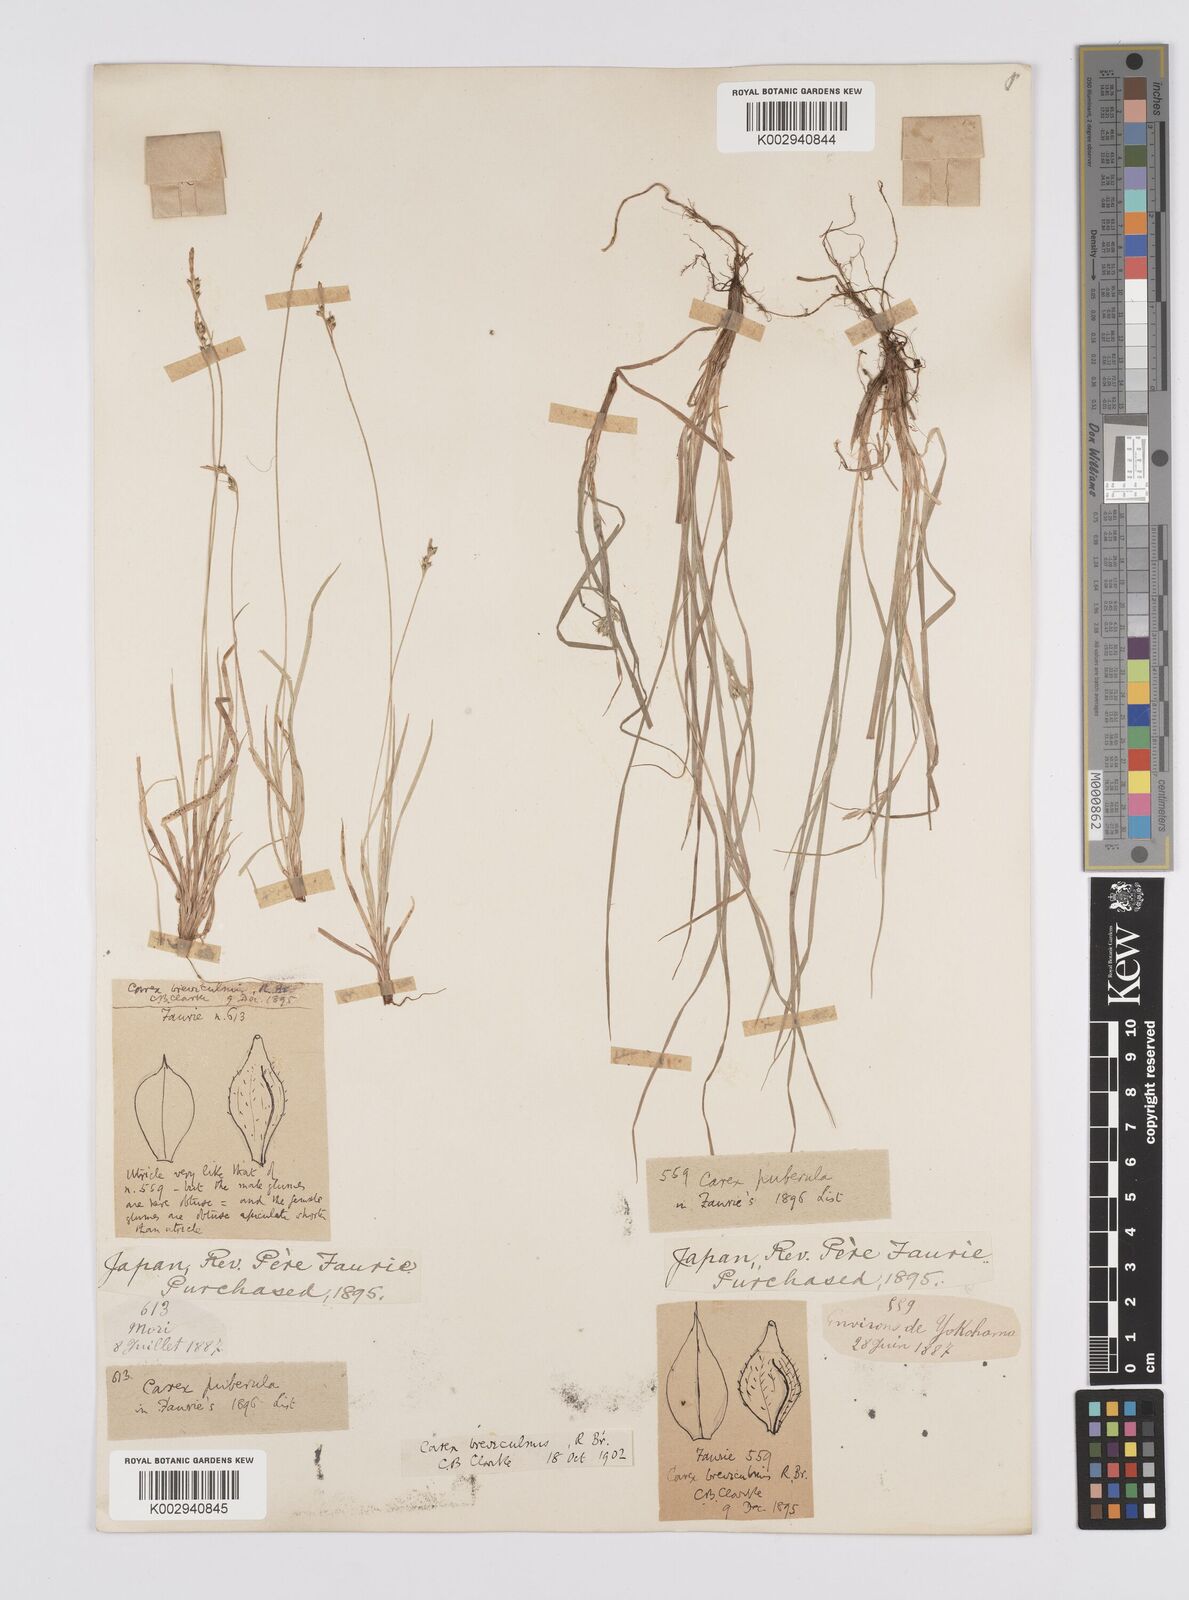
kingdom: Plantae
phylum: Tracheophyta
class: Liliopsida
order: Poales
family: Cyperaceae
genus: Carex
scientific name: Carex breviculmis
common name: Asian shortstem sedge
